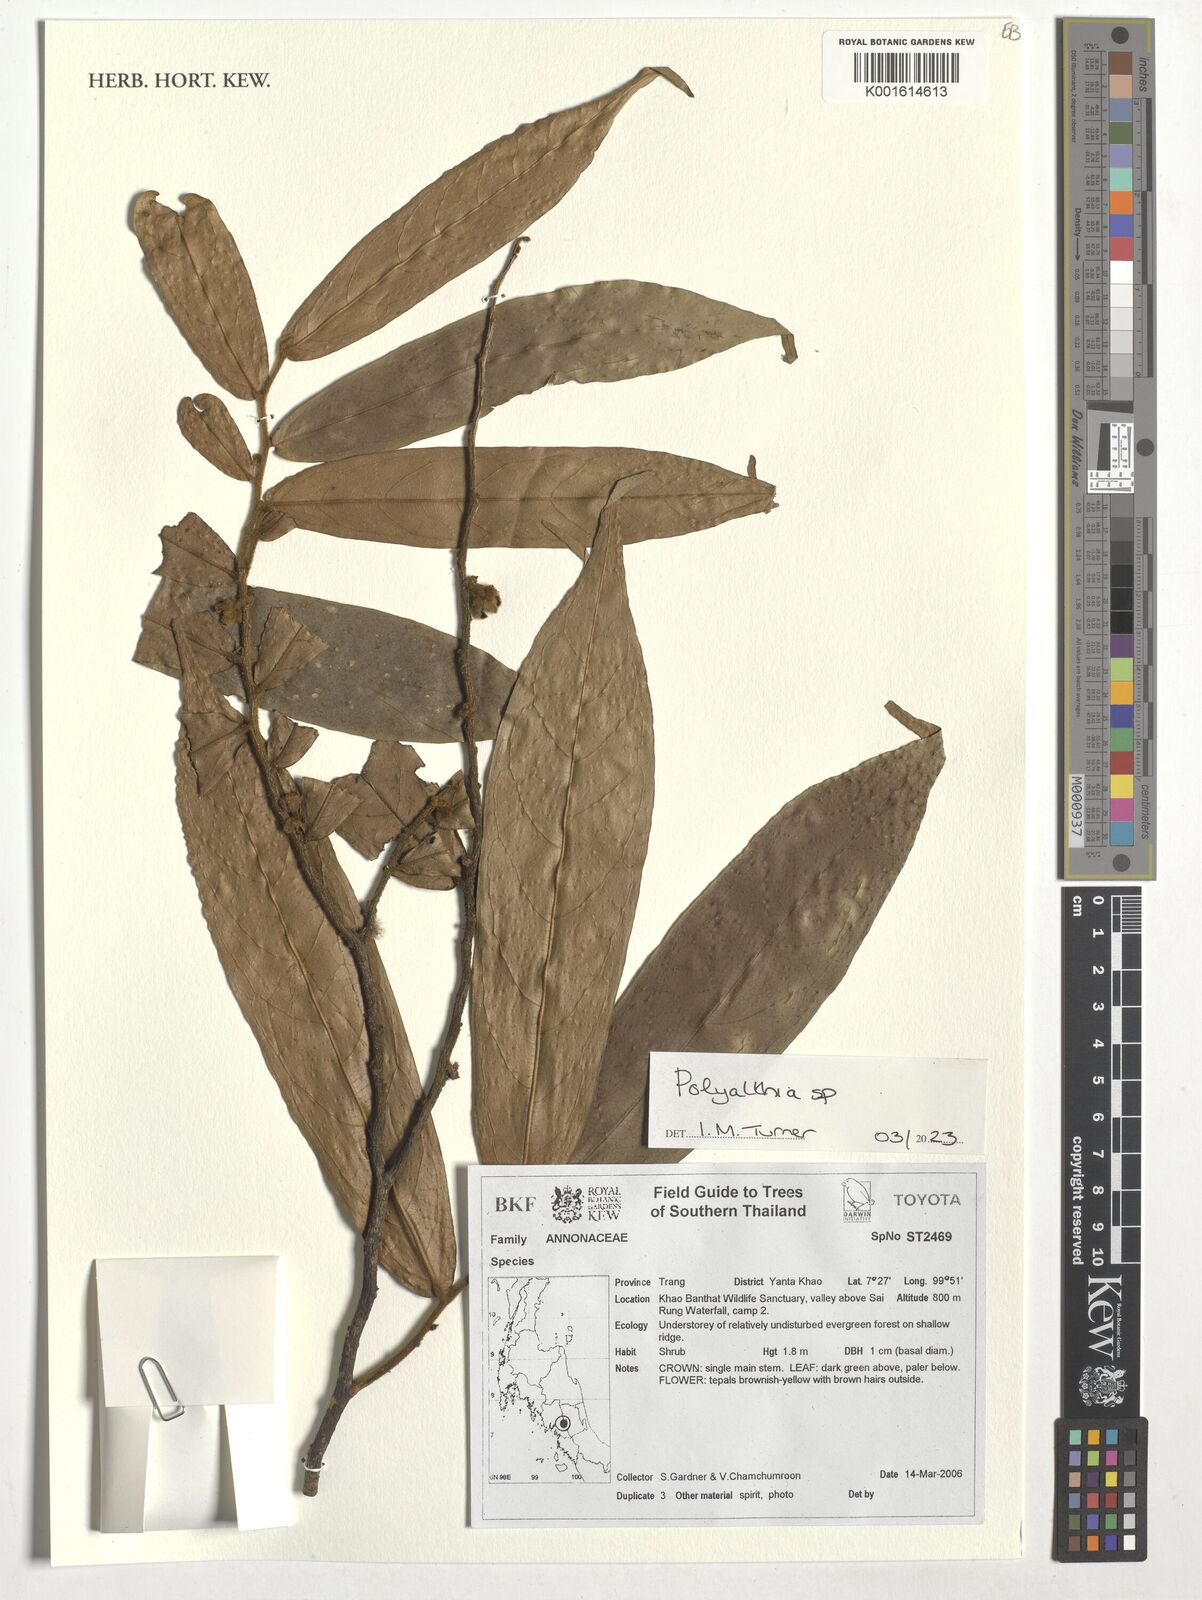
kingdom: Plantae
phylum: Tracheophyta
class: Magnoliopsida
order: Magnoliales
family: Annonaceae
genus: Polyalthia
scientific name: Polyalthia
